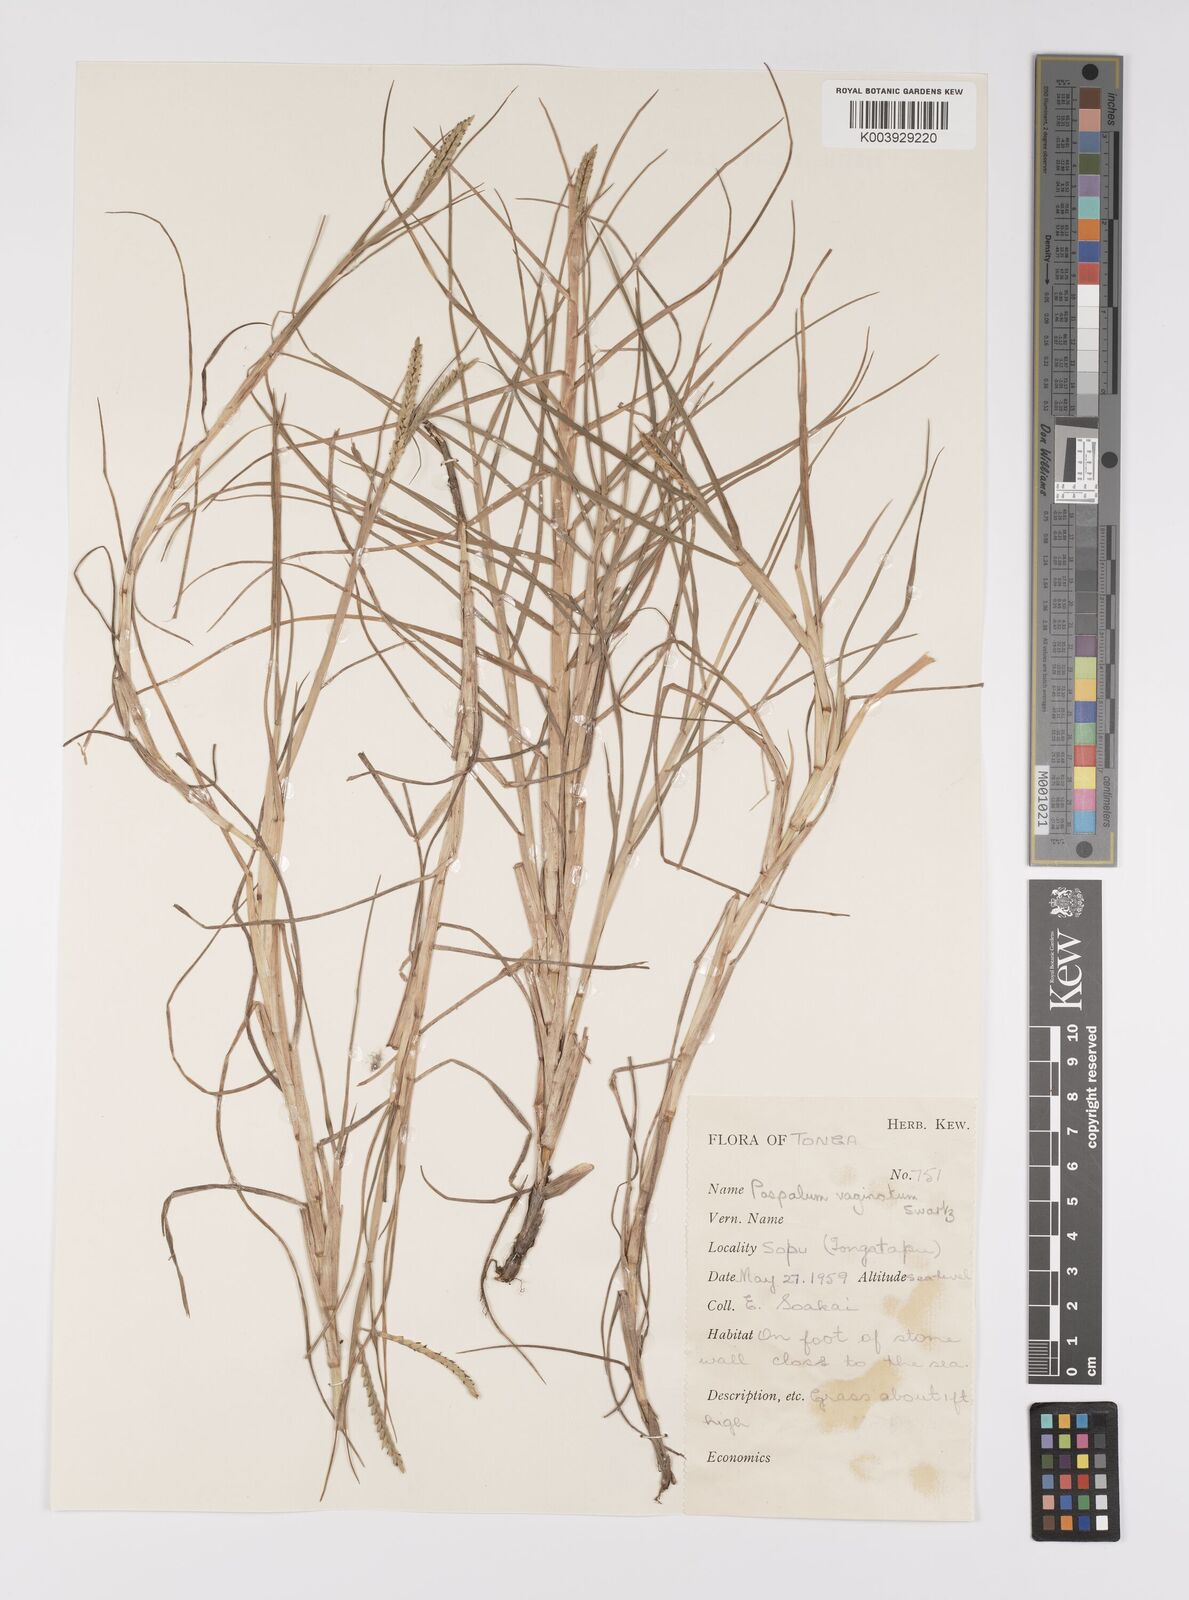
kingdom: Plantae
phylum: Tracheophyta
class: Liliopsida
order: Poales
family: Poaceae
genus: Paspalum
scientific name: Paspalum vaginatum
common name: Seashore paspalum
